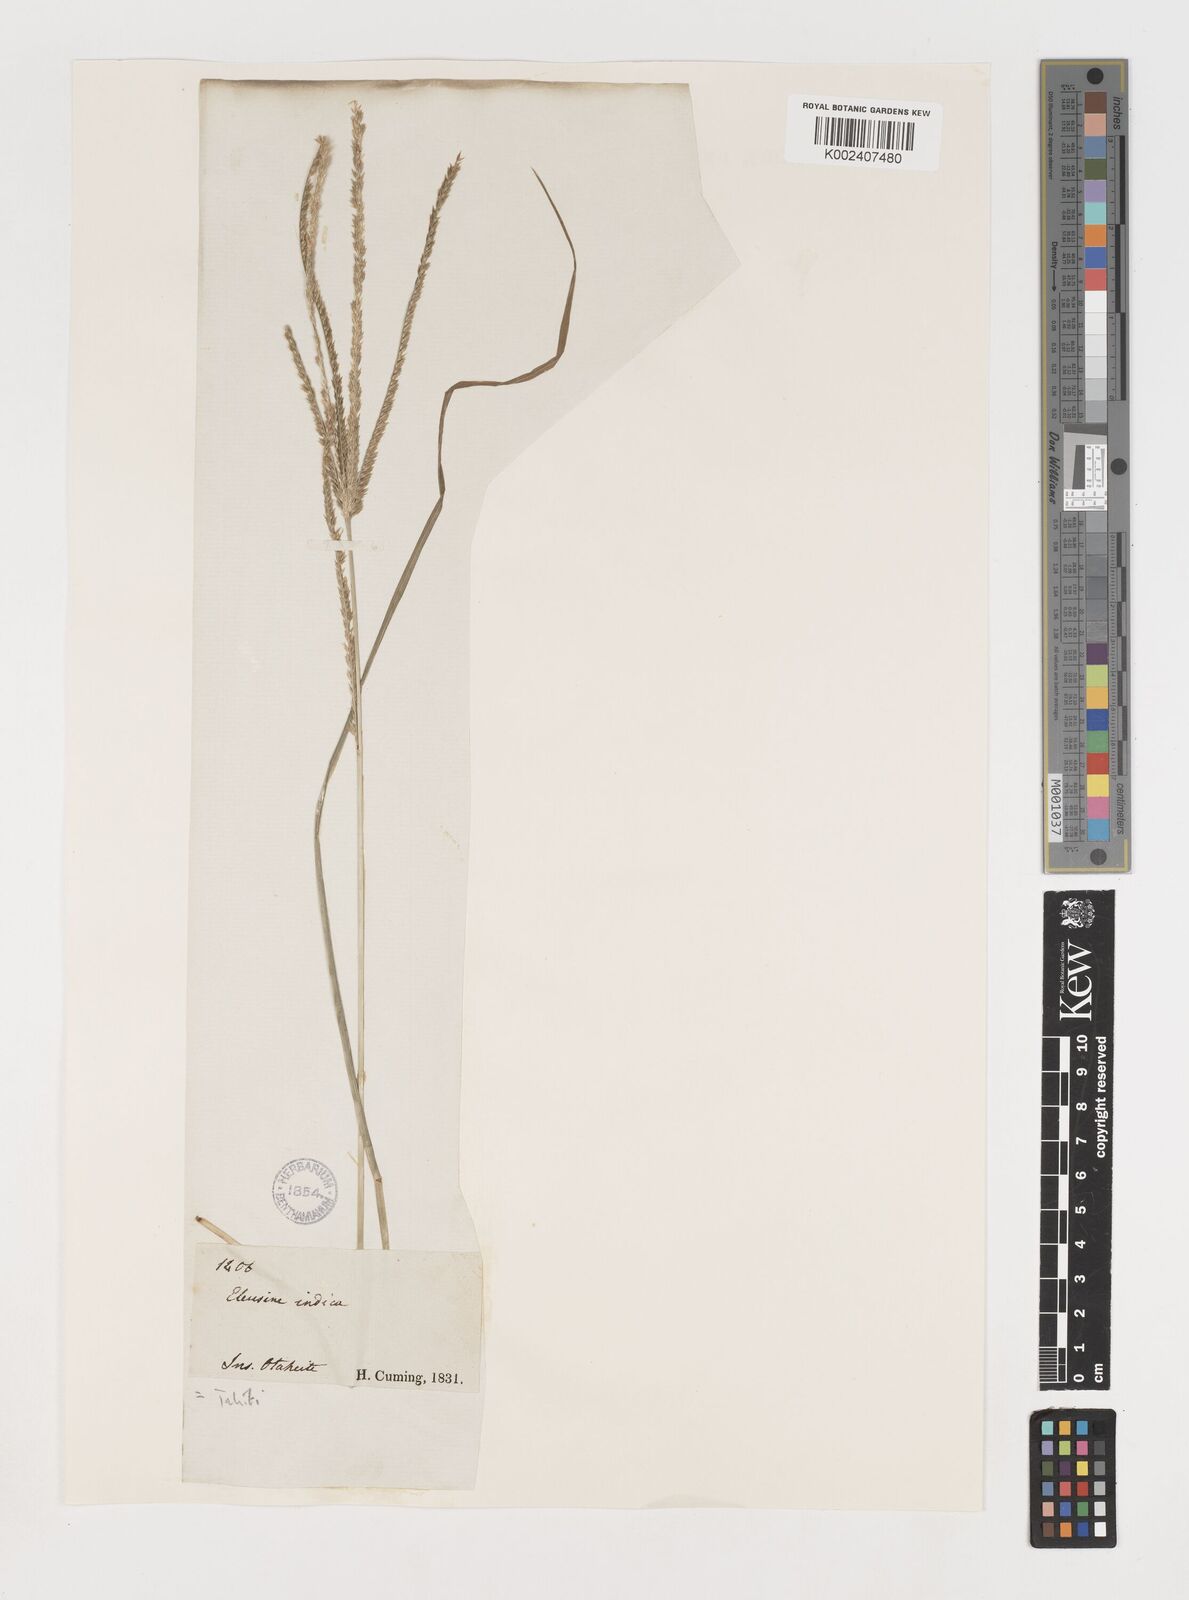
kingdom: Plantae
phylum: Tracheophyta
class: Liliopsida
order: Poales
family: Poaceae
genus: Eleusine
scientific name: Eleusine indica
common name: Yard-grass
